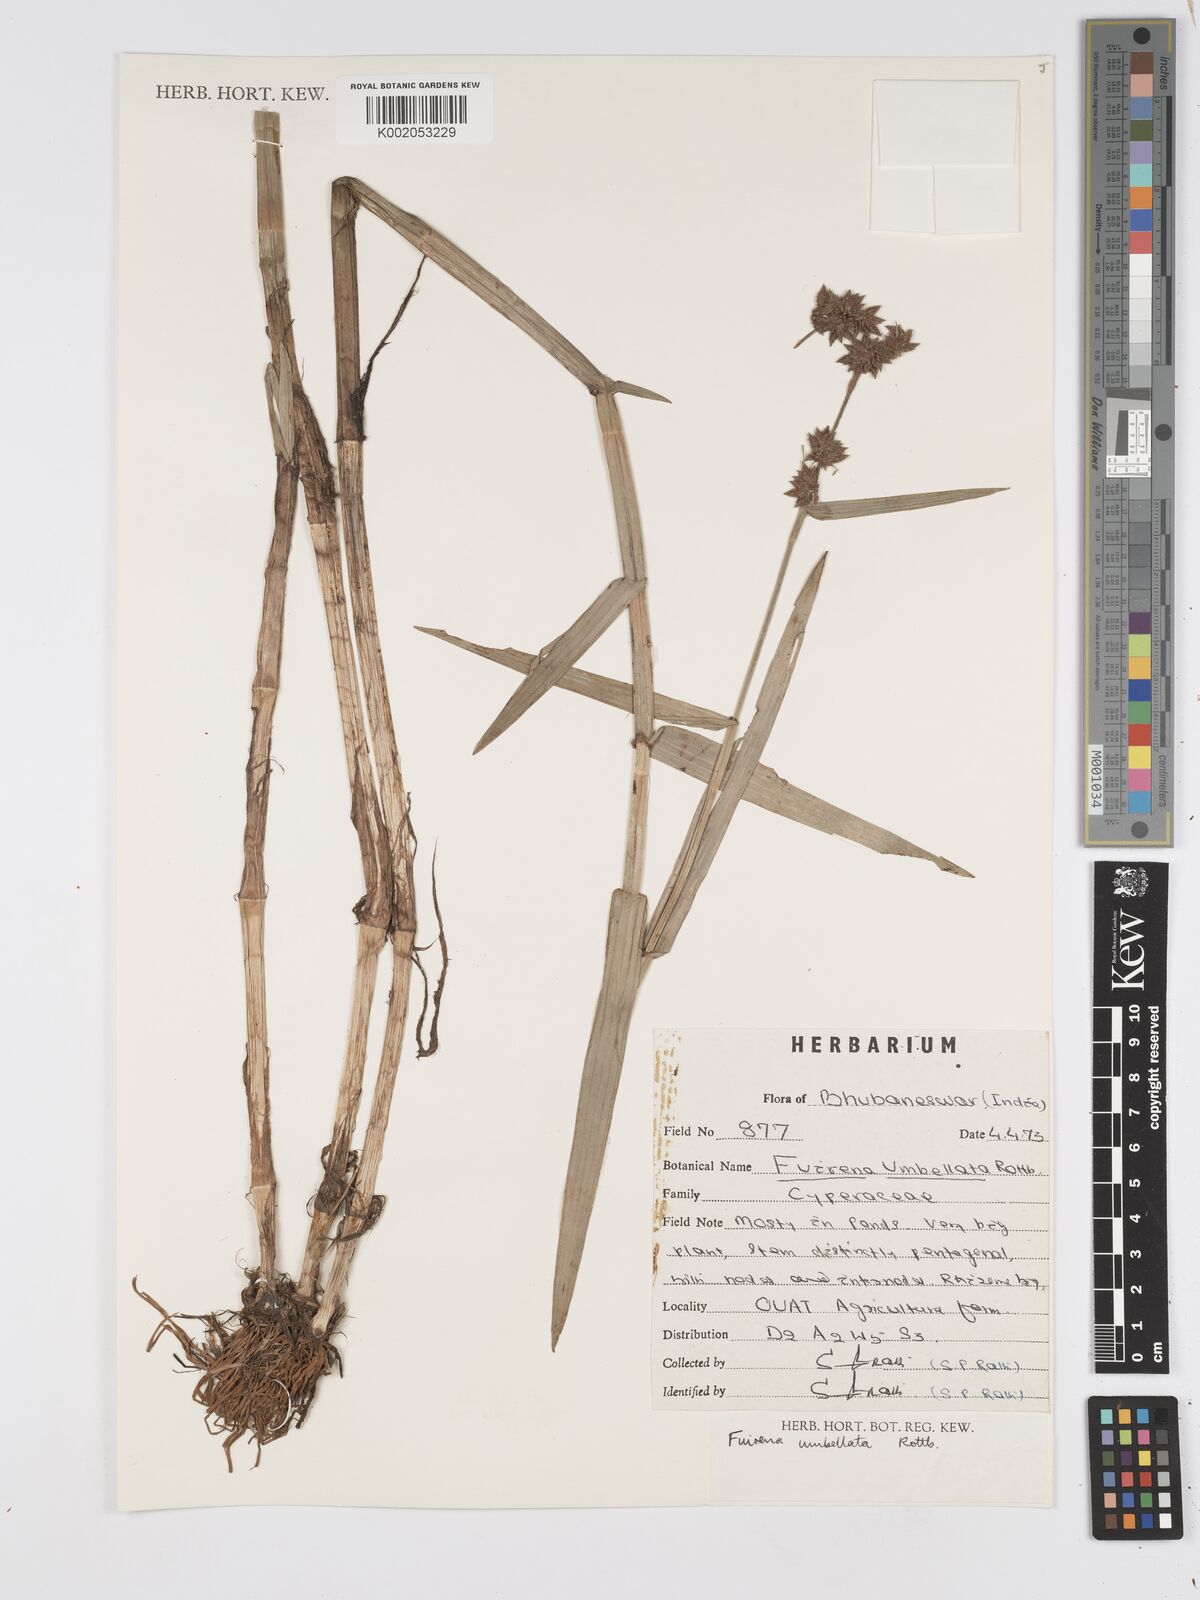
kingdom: Plantae
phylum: Tracheophyta
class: Liliopsida
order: Poales
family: Cyperaceae
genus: Fuirena
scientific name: Fuirena umbellata
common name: Yefen
